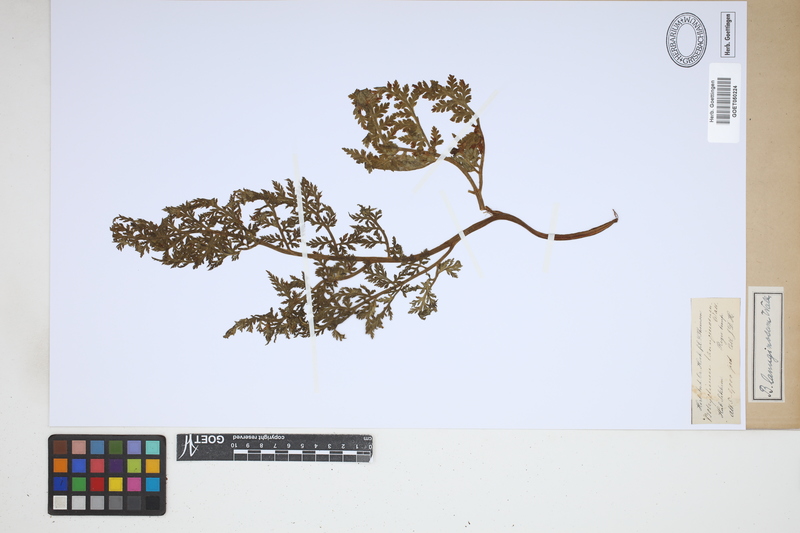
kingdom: Plantae
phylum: Tracheophyta
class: Polypodiopsida
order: Ophioglossales
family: Ophioglossaceae
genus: Japanobotrychum
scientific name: Japanobotrychum lanuginosum
